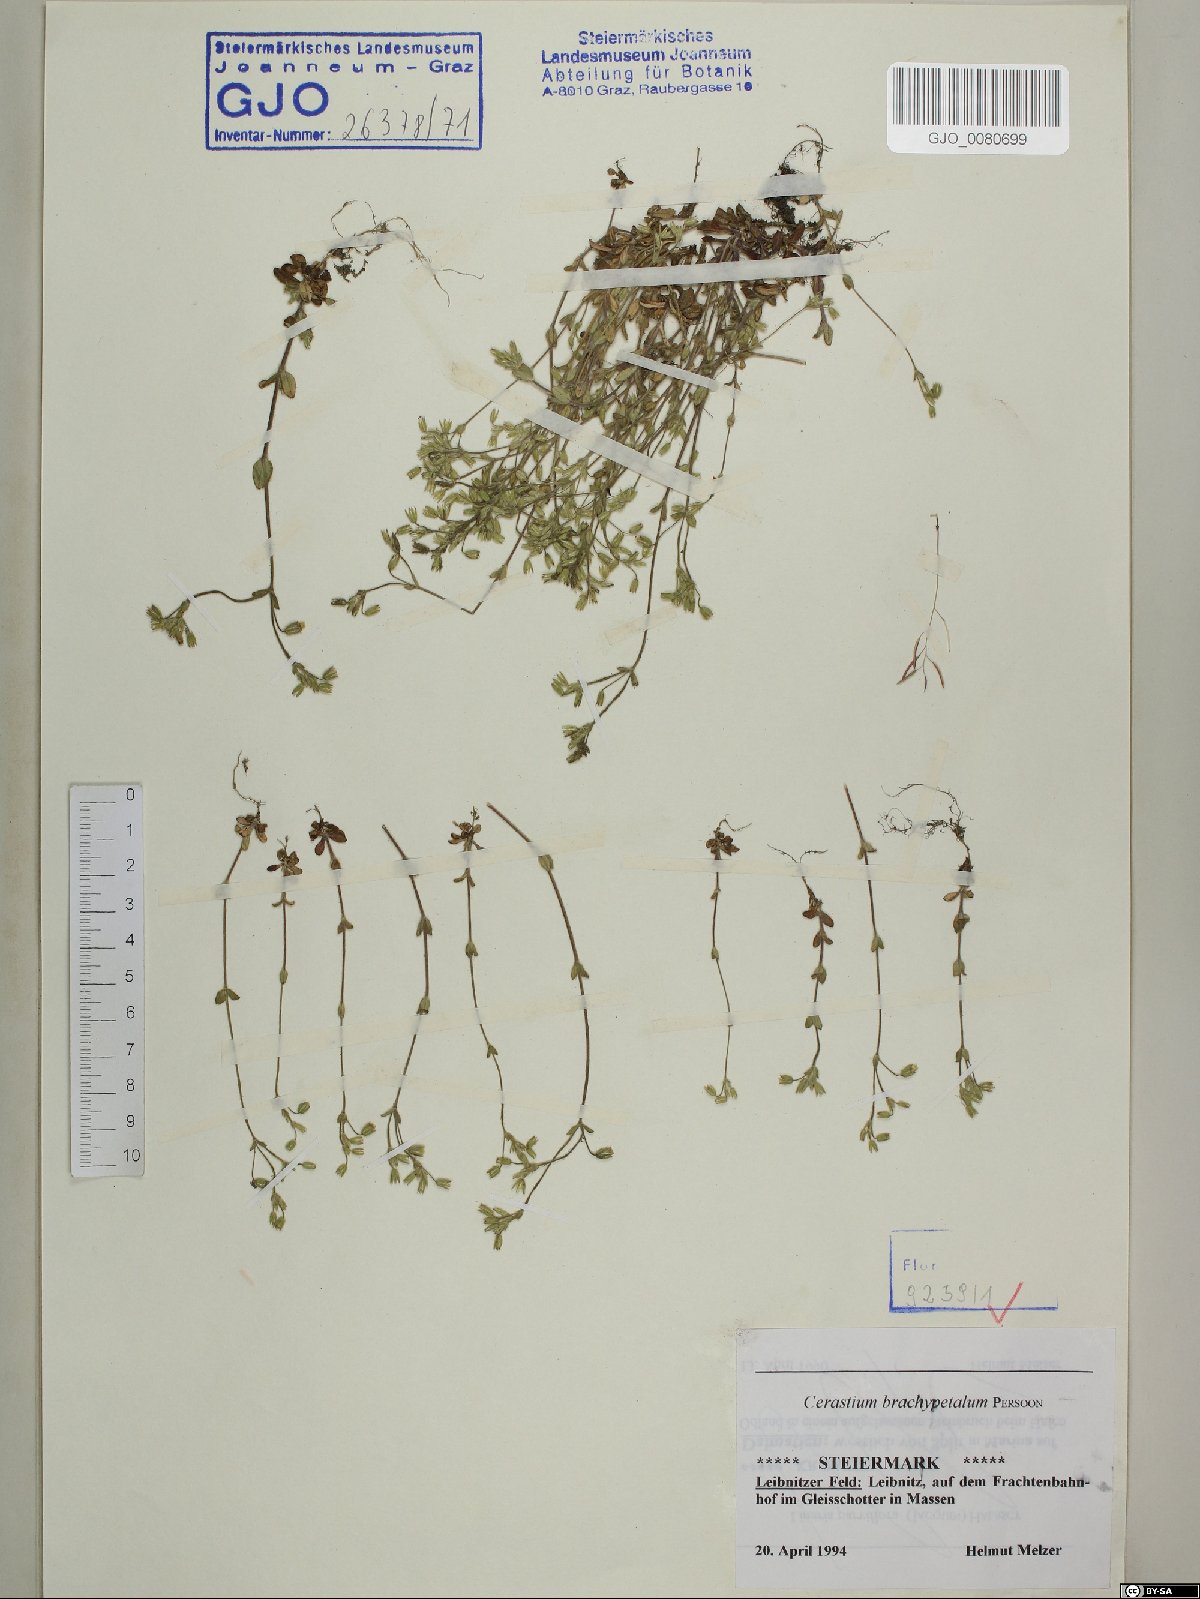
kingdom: Plantae
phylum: Tracheophyta
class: Magnoliopsida
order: Caryophyllales
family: Caryophyllaceae
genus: Cerastium
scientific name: Cerastium brachypetalum
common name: Grey mouse-ear
